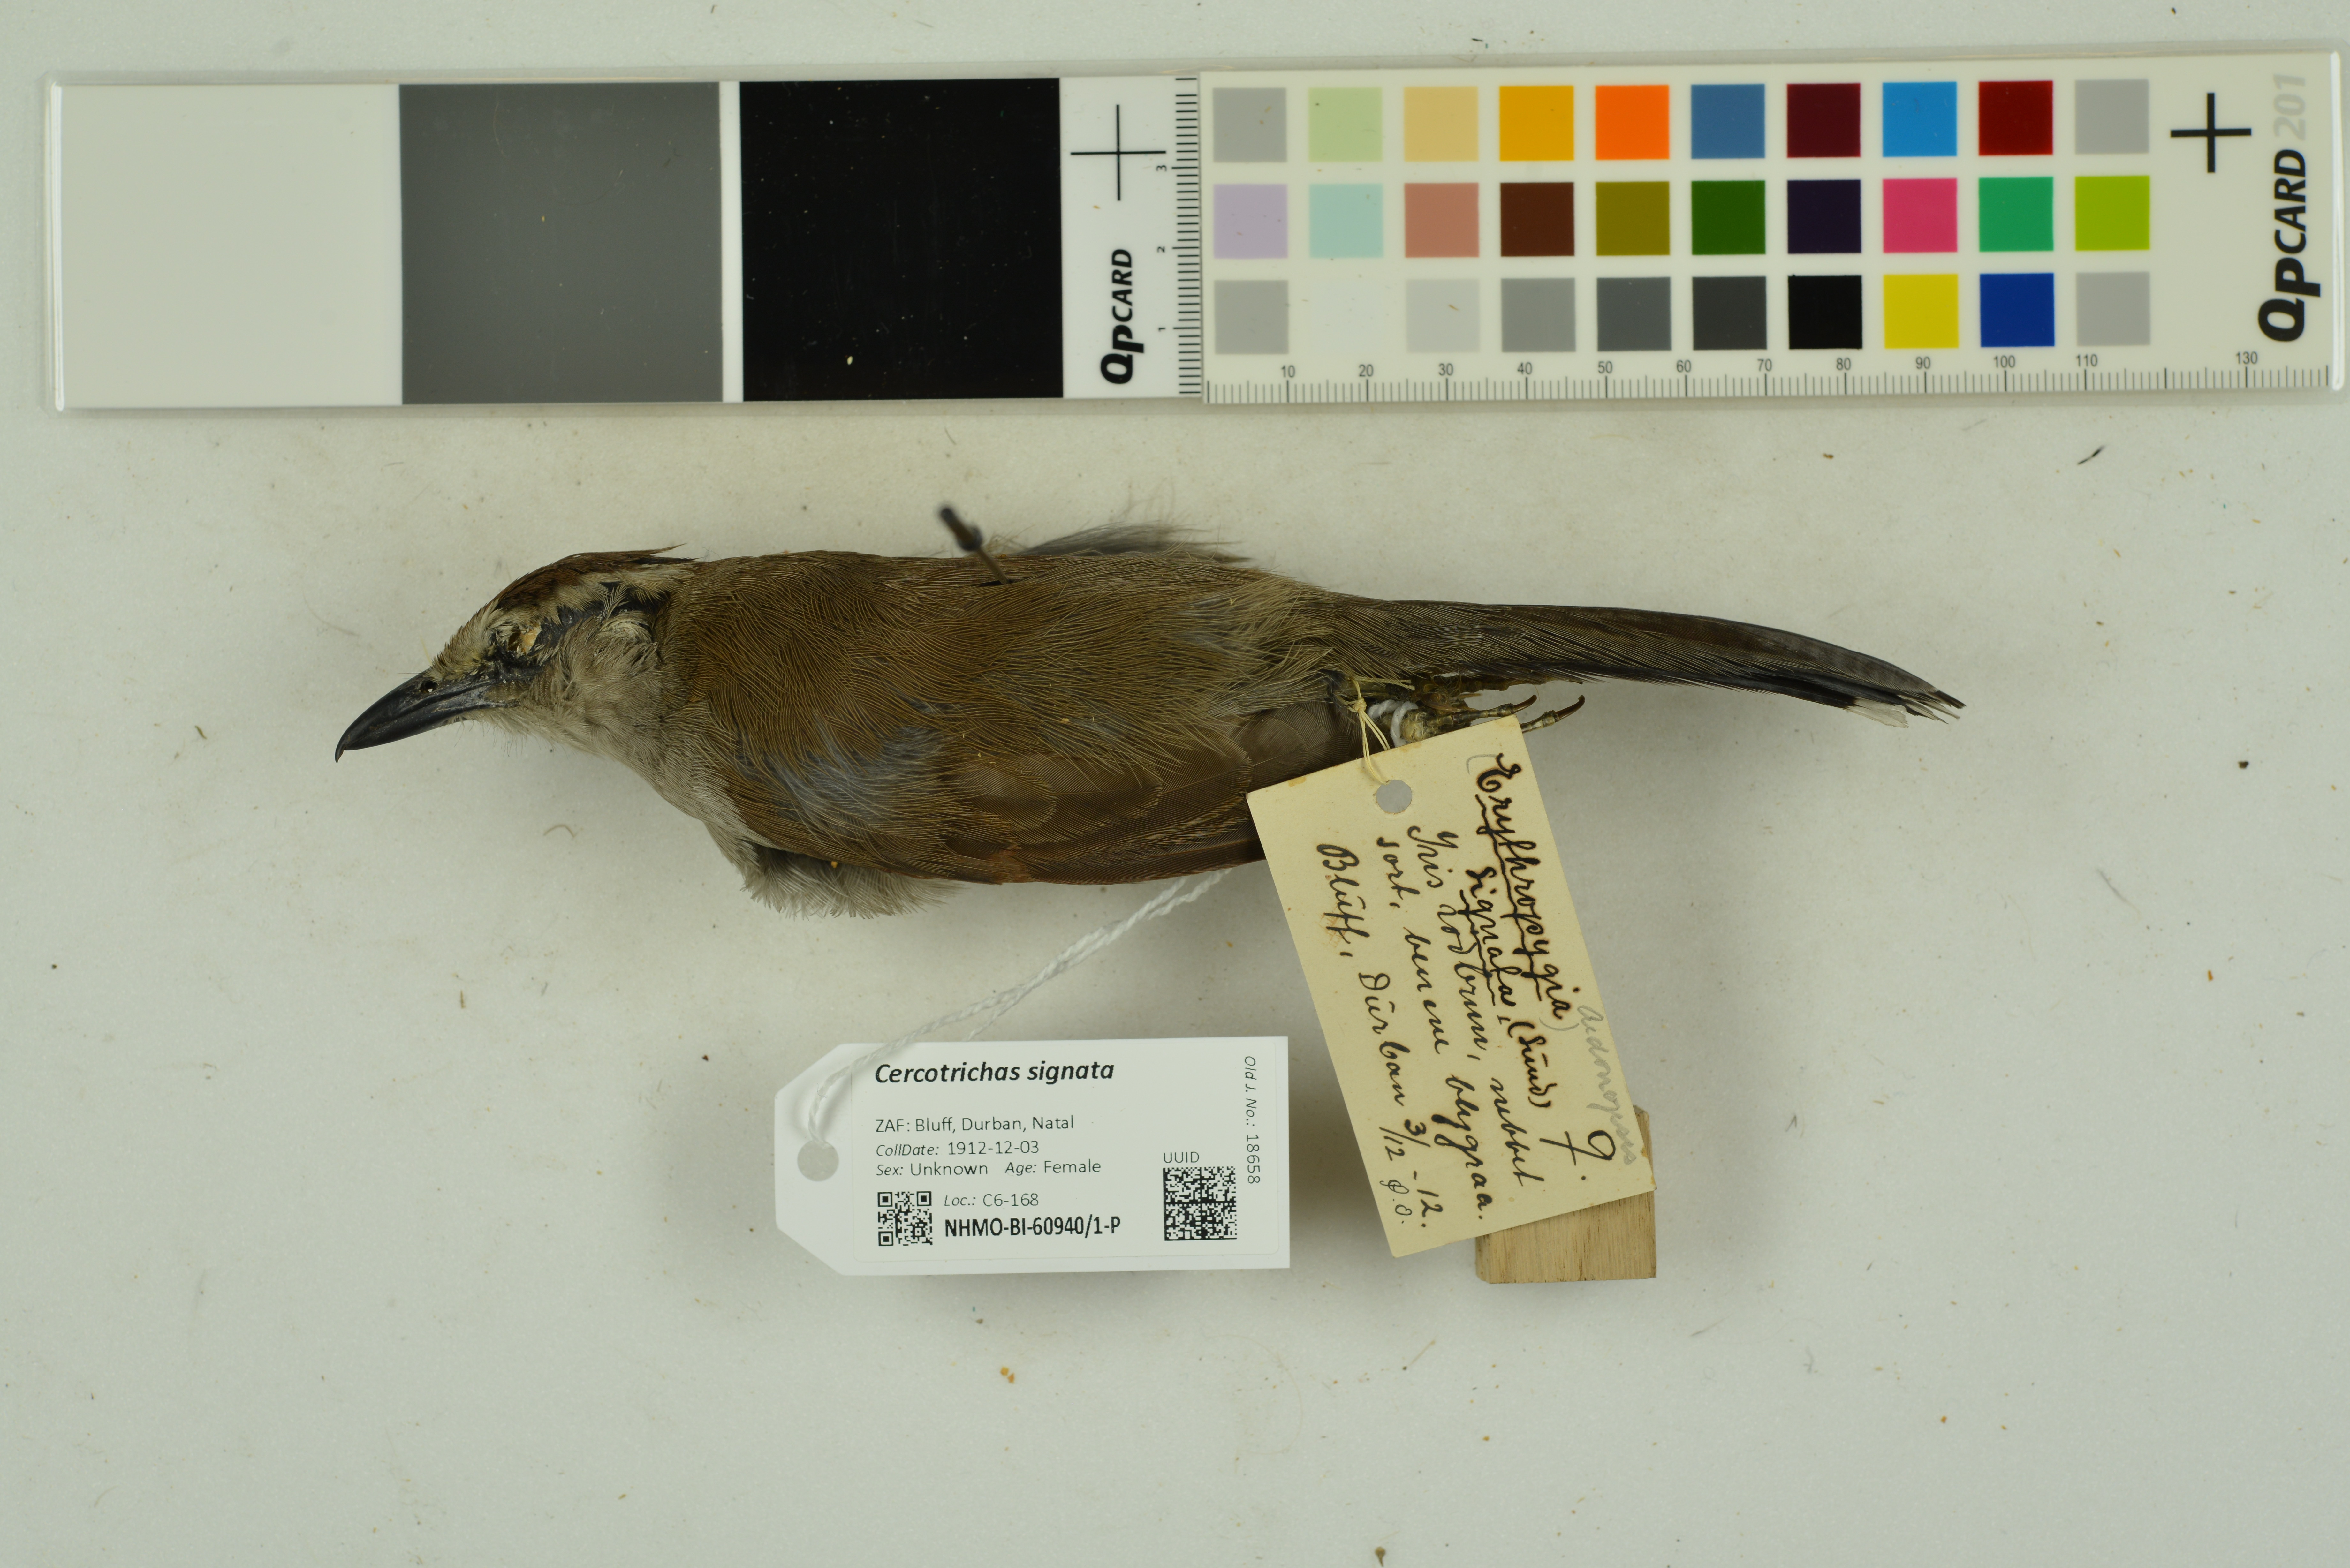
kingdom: Animalia
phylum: Chordata
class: Aves
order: Passeriformes
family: Muscicapidae
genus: Erythropygia
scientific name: Erythropygia signata
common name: Brown scrub robin
